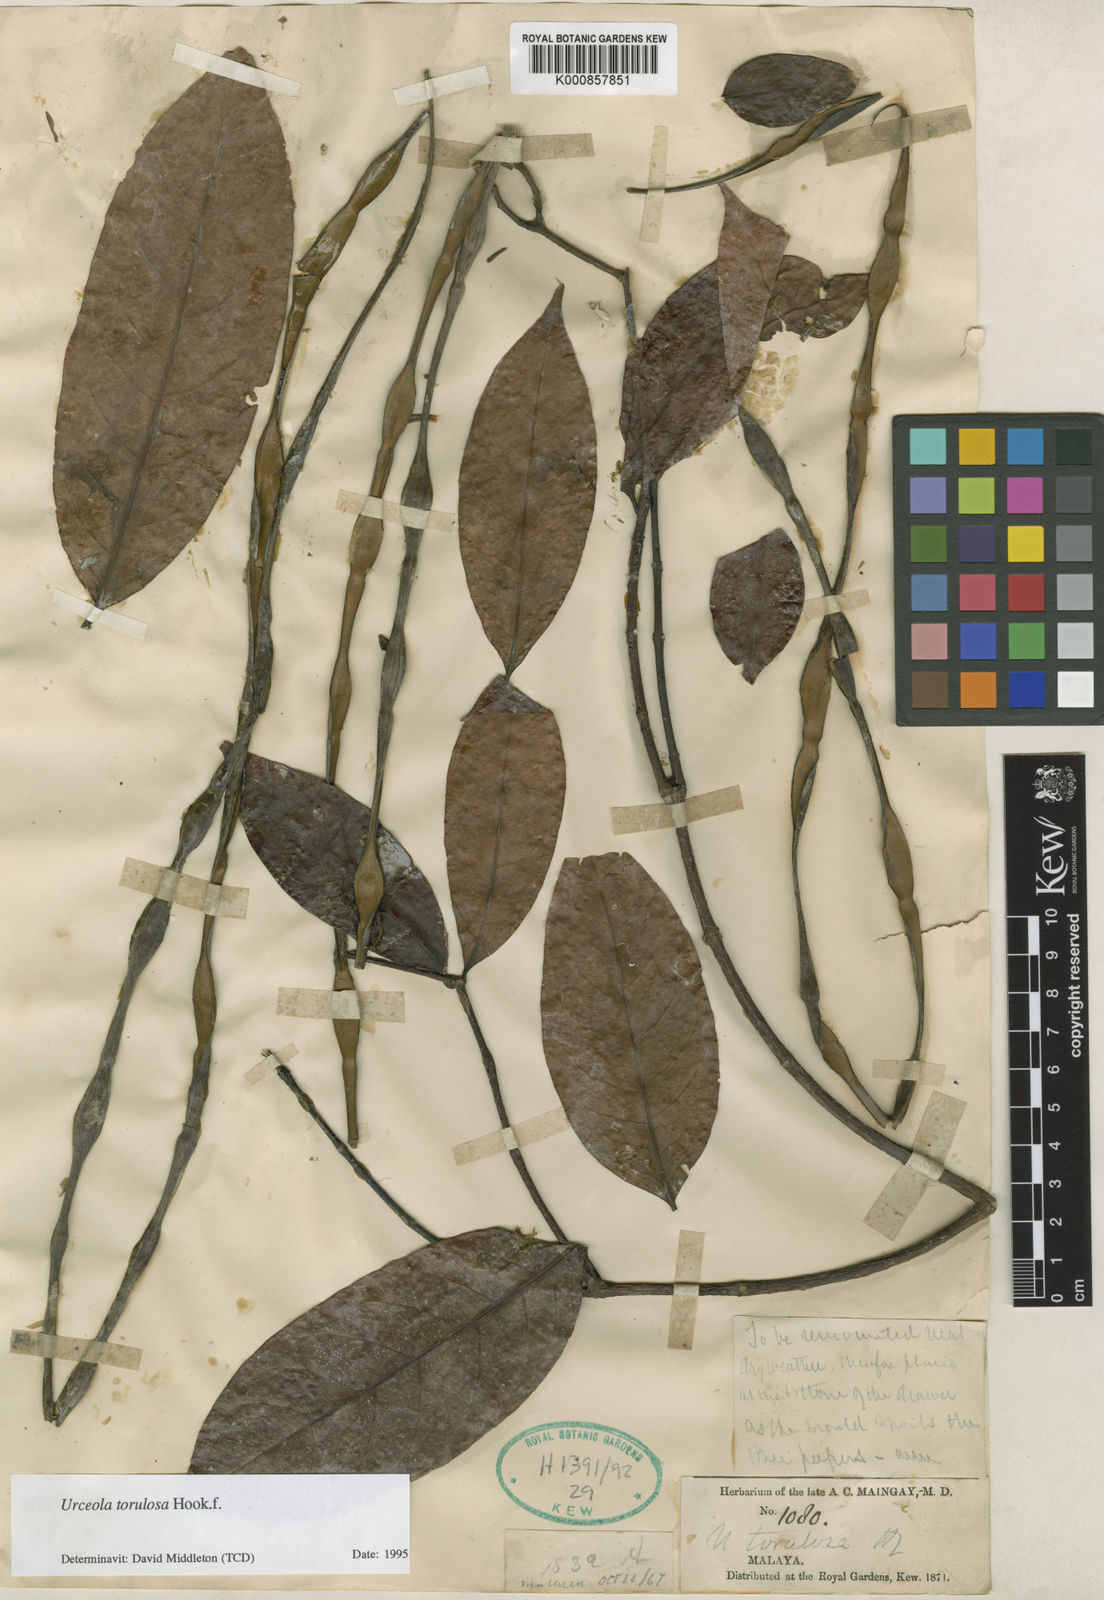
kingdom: Plantae
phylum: Tracheophyta
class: Magnoliopsida
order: Gentianales
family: Apocynaceae
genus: Urceola
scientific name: Urceola torulosa
